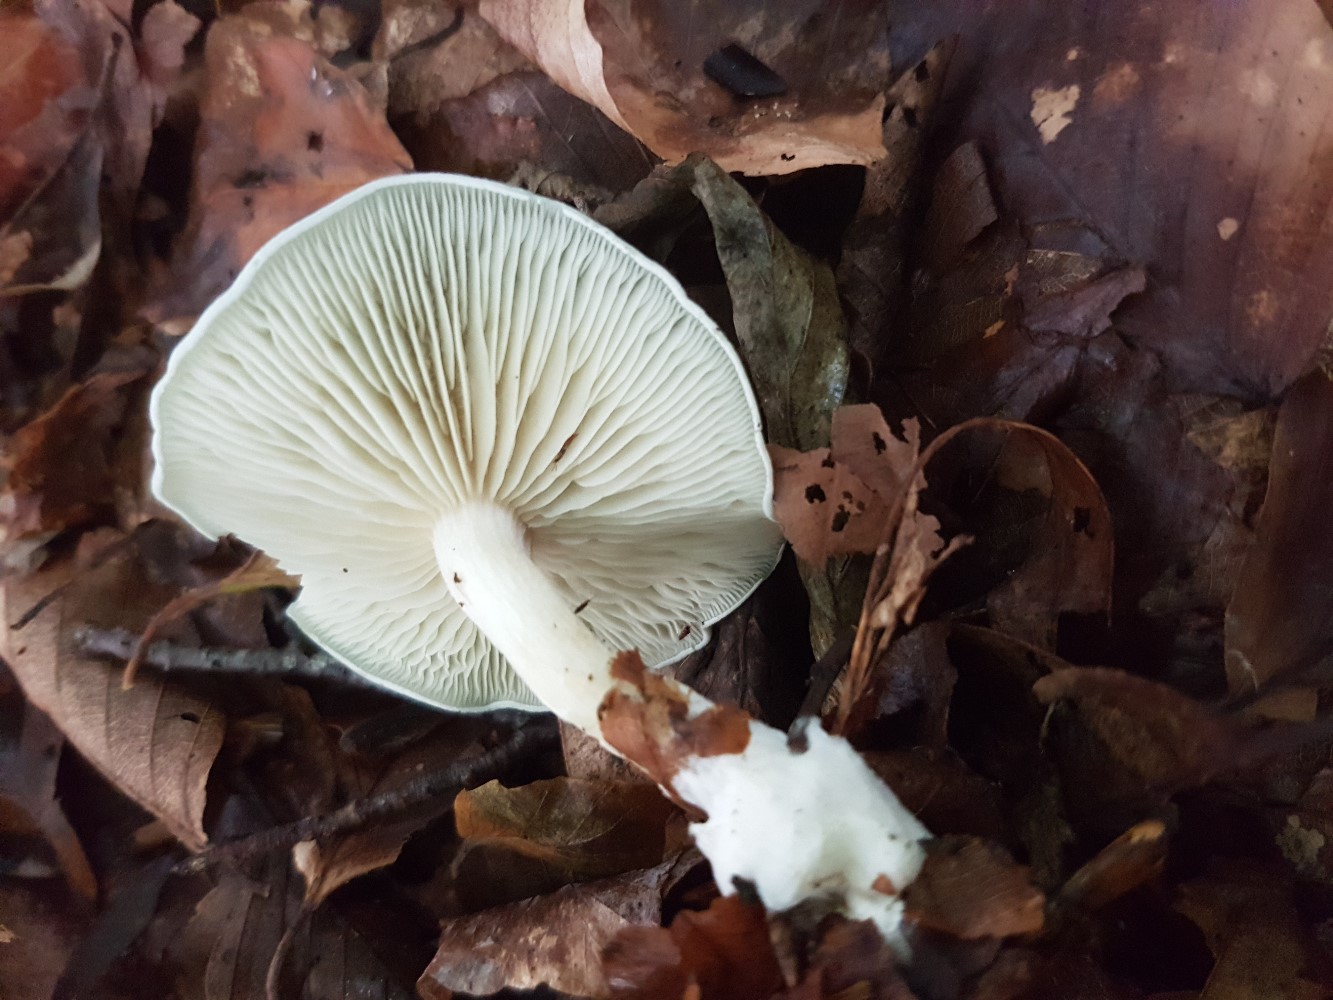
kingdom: Fungi
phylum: Basidiomycota
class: Agaricomycetes
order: Agaricales
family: Tricholomataceae
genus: Clitocybe
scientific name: Clitocybe odora
